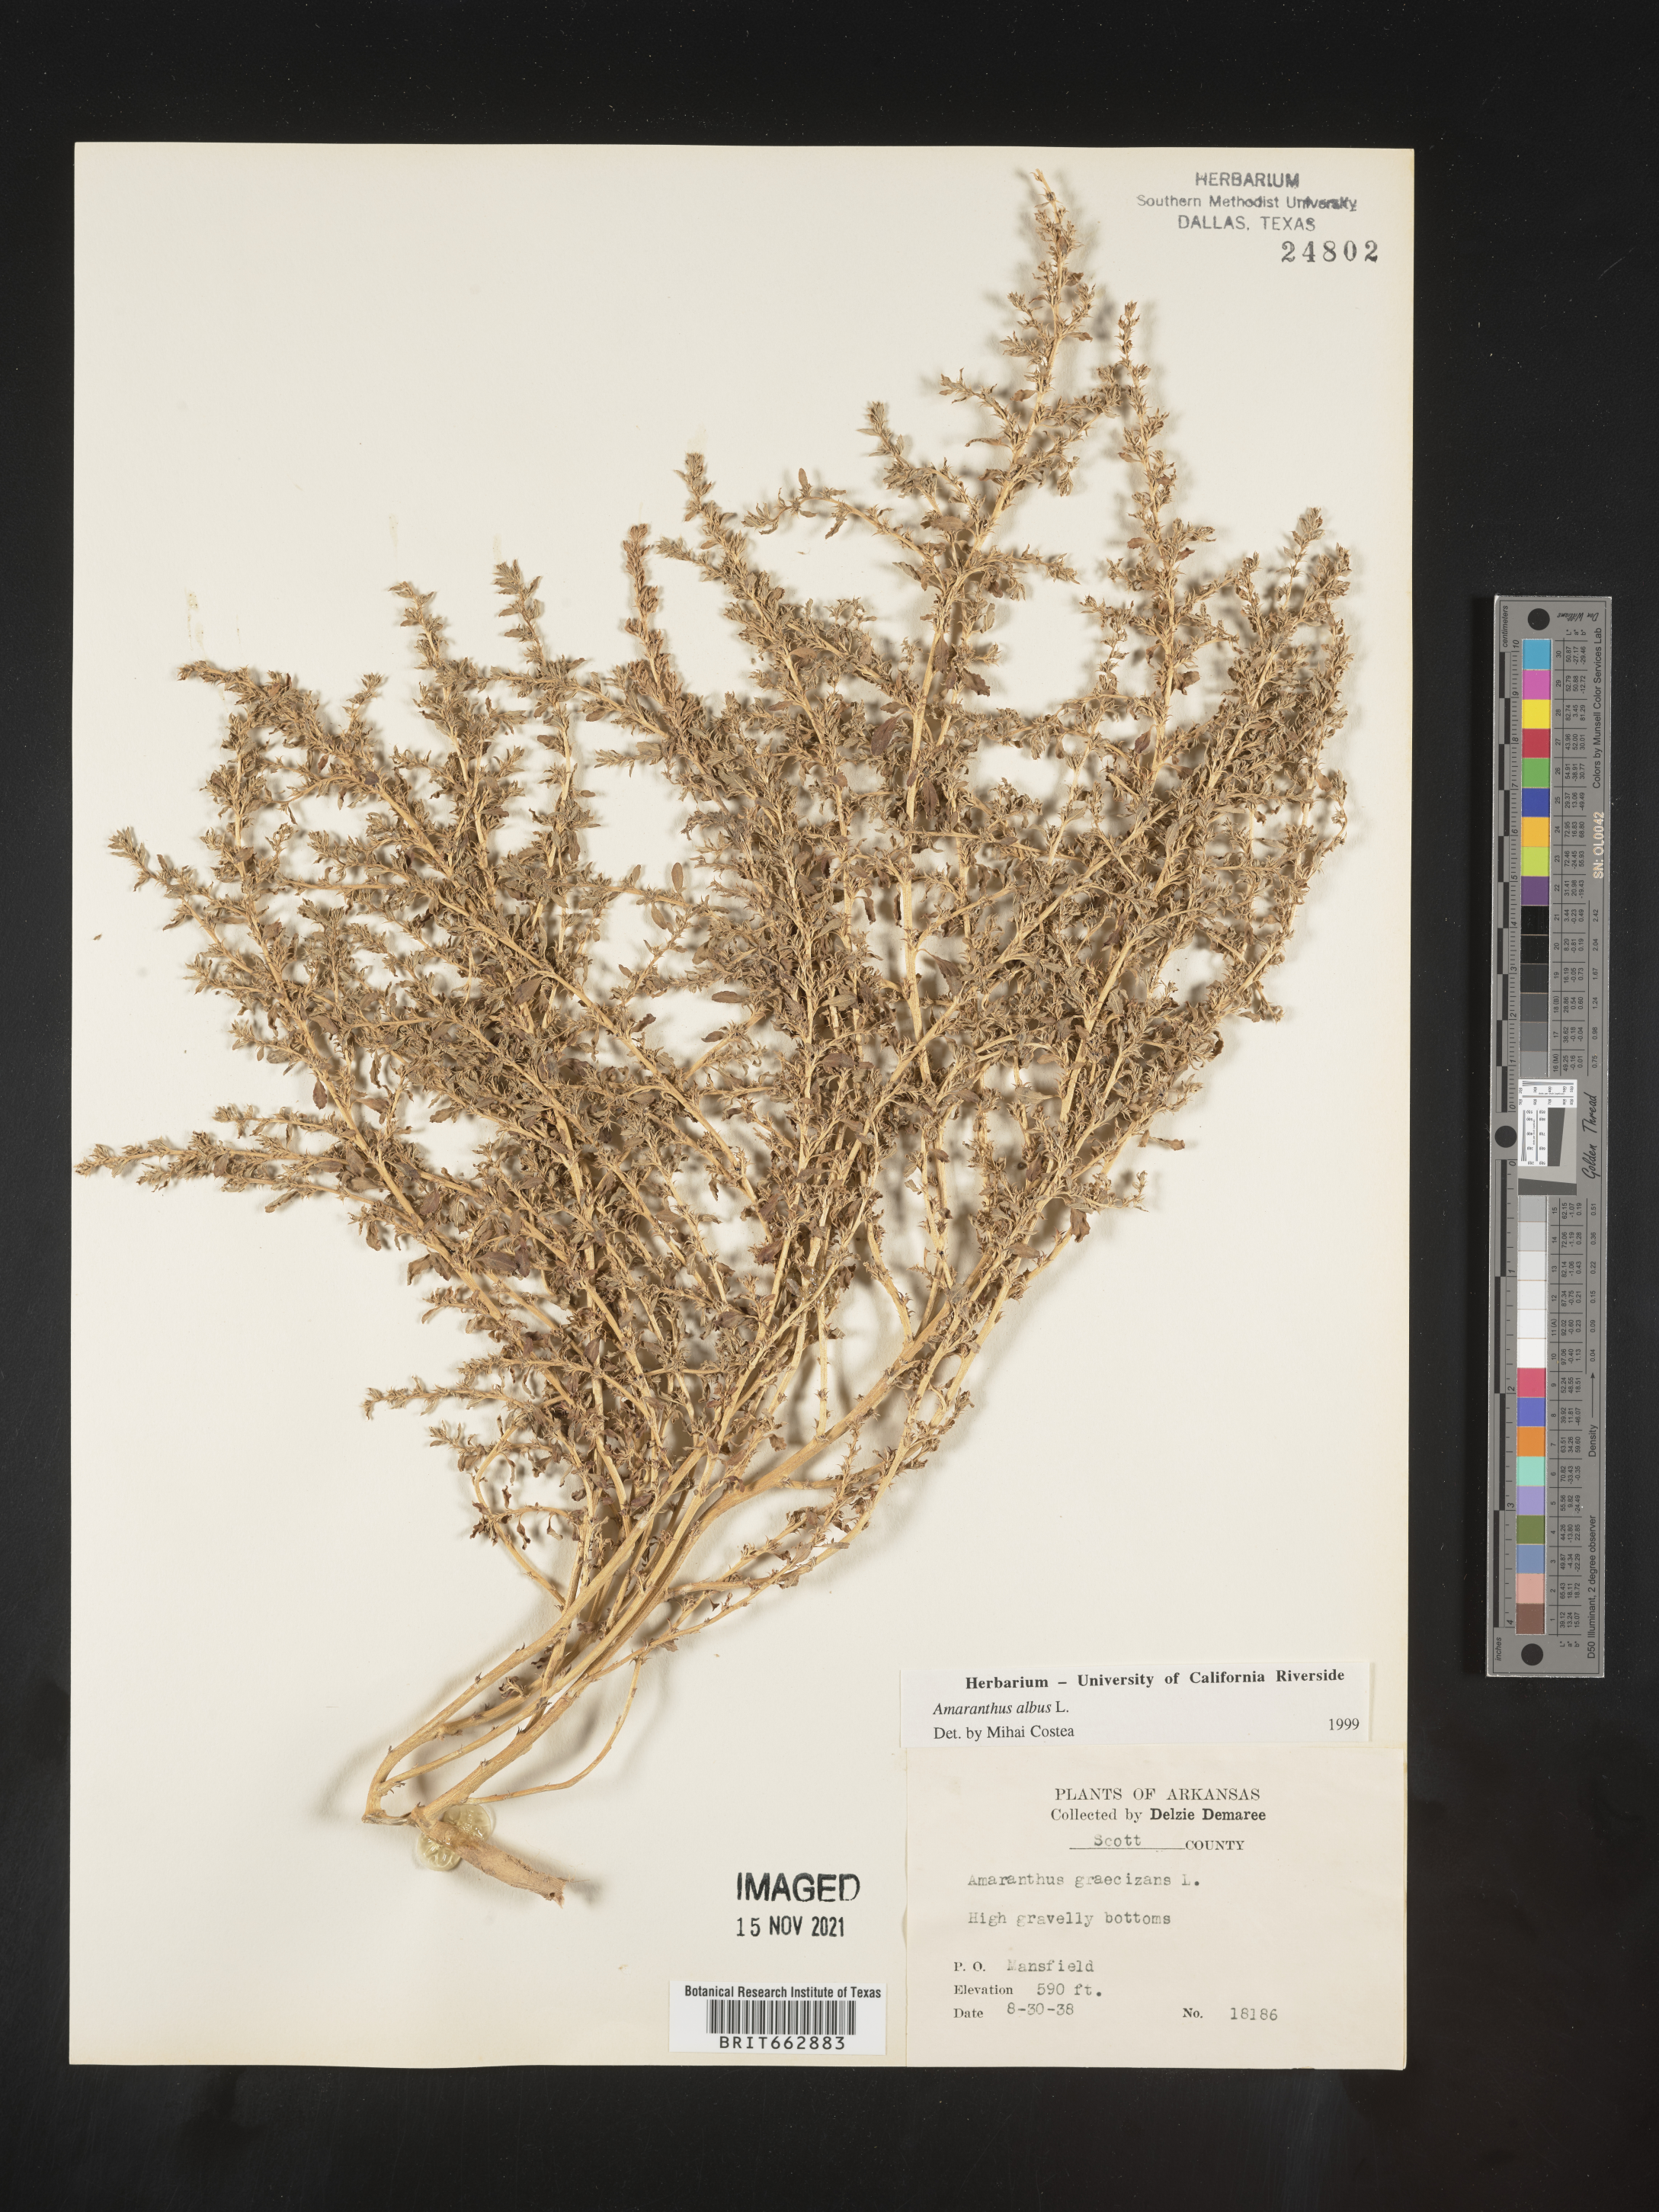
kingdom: Plantae
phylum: Tracheophyta
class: Magnoliopsida
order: Caryophyllales
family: Amaranthaceae
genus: Amaranthus
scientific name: Amaranthus albus
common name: White pigweed
